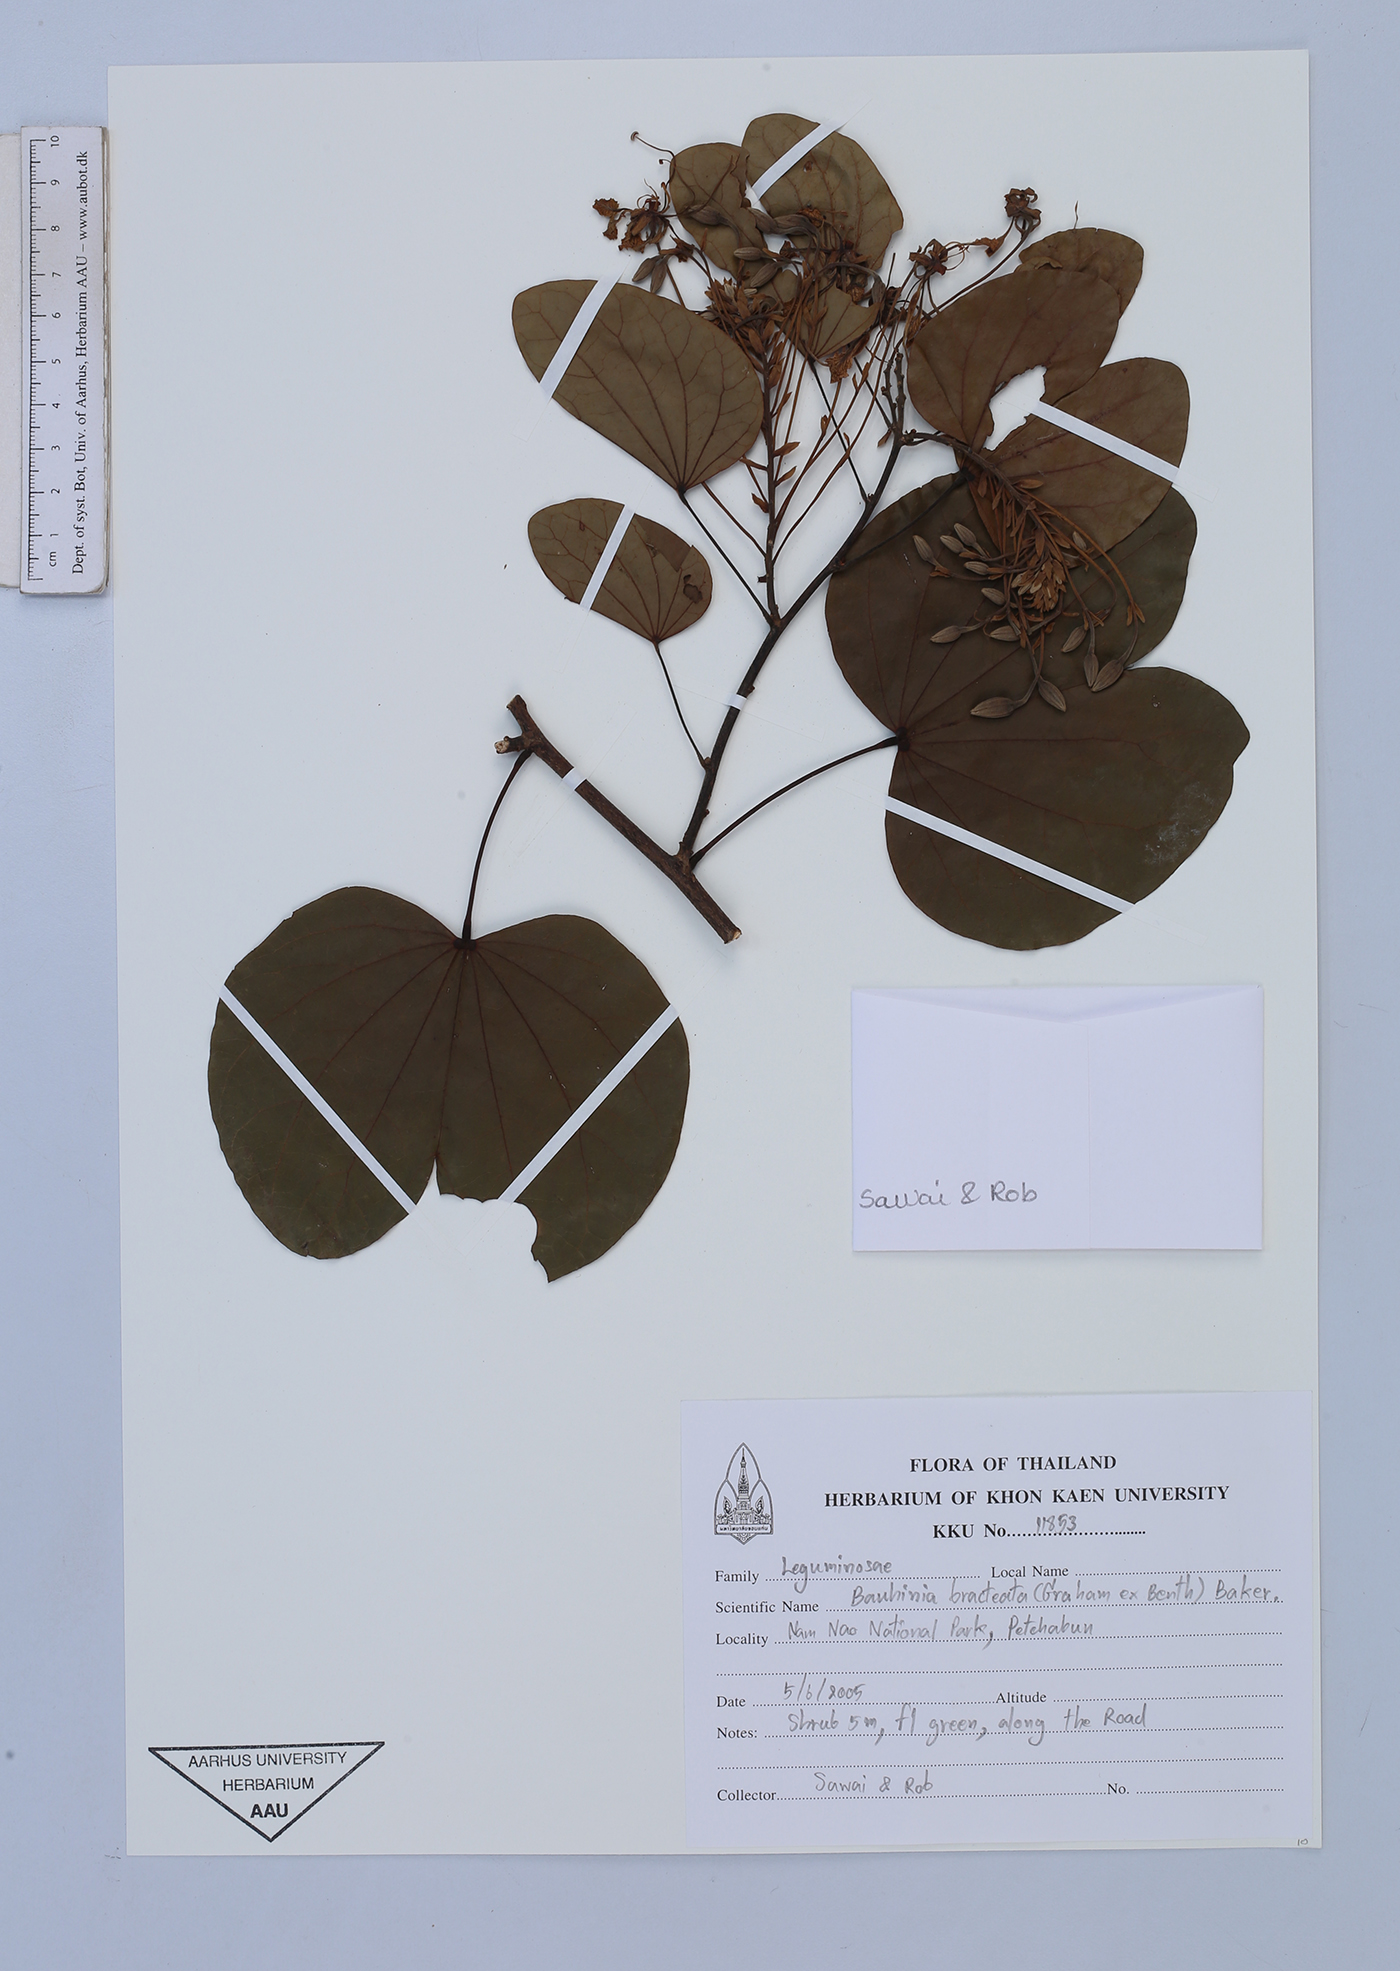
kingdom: Plantae
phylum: Tracheophyta
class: Magnoliopsida
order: Fabales
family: Fabaceae
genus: Phanera
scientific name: Phanera bracteata
